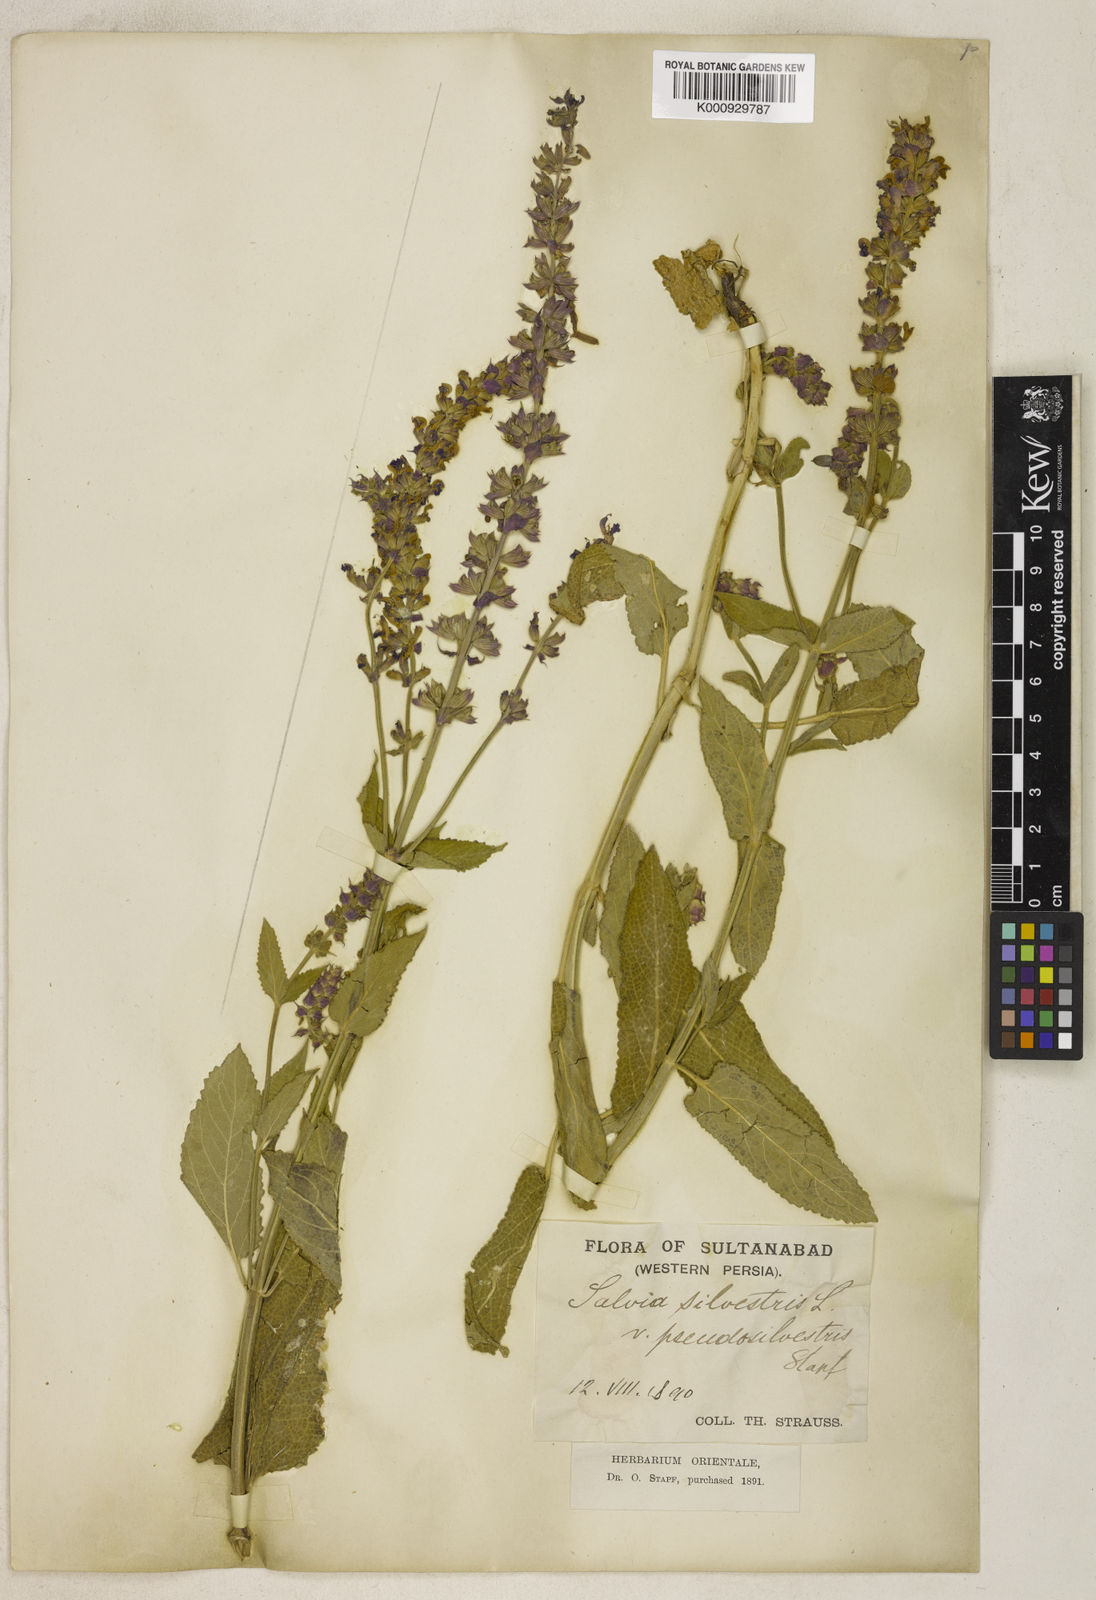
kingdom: Plantae
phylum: Tracheophyta
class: Magnoliopsida
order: Lamiales
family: Lamiaceae
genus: Salvia
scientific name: Salvia nemorosa
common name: Balkan clary
